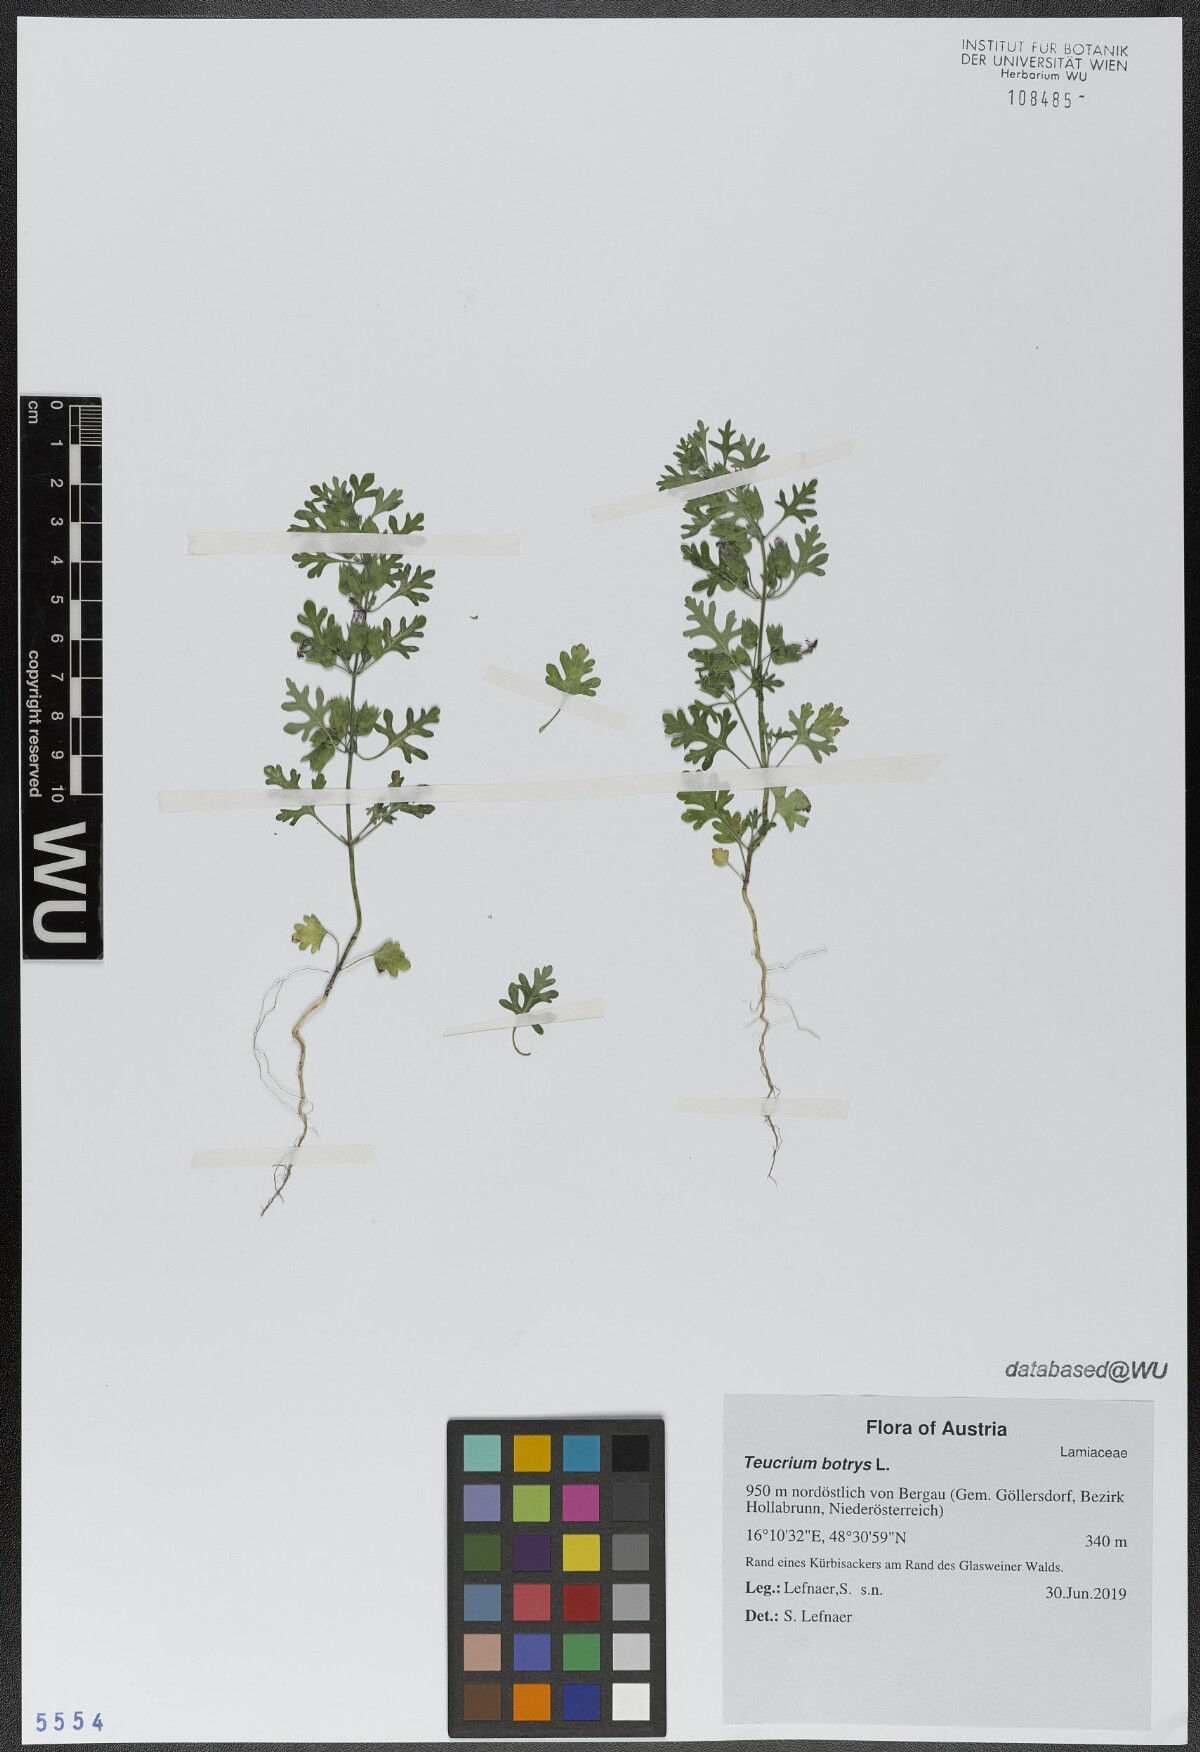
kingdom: Plantae
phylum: Tracheophyta
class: Magnoliopsida
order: Lamiales
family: Lamiaceae
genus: Teucrium
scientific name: Teucrium botrys
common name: Cut-leaved germander
